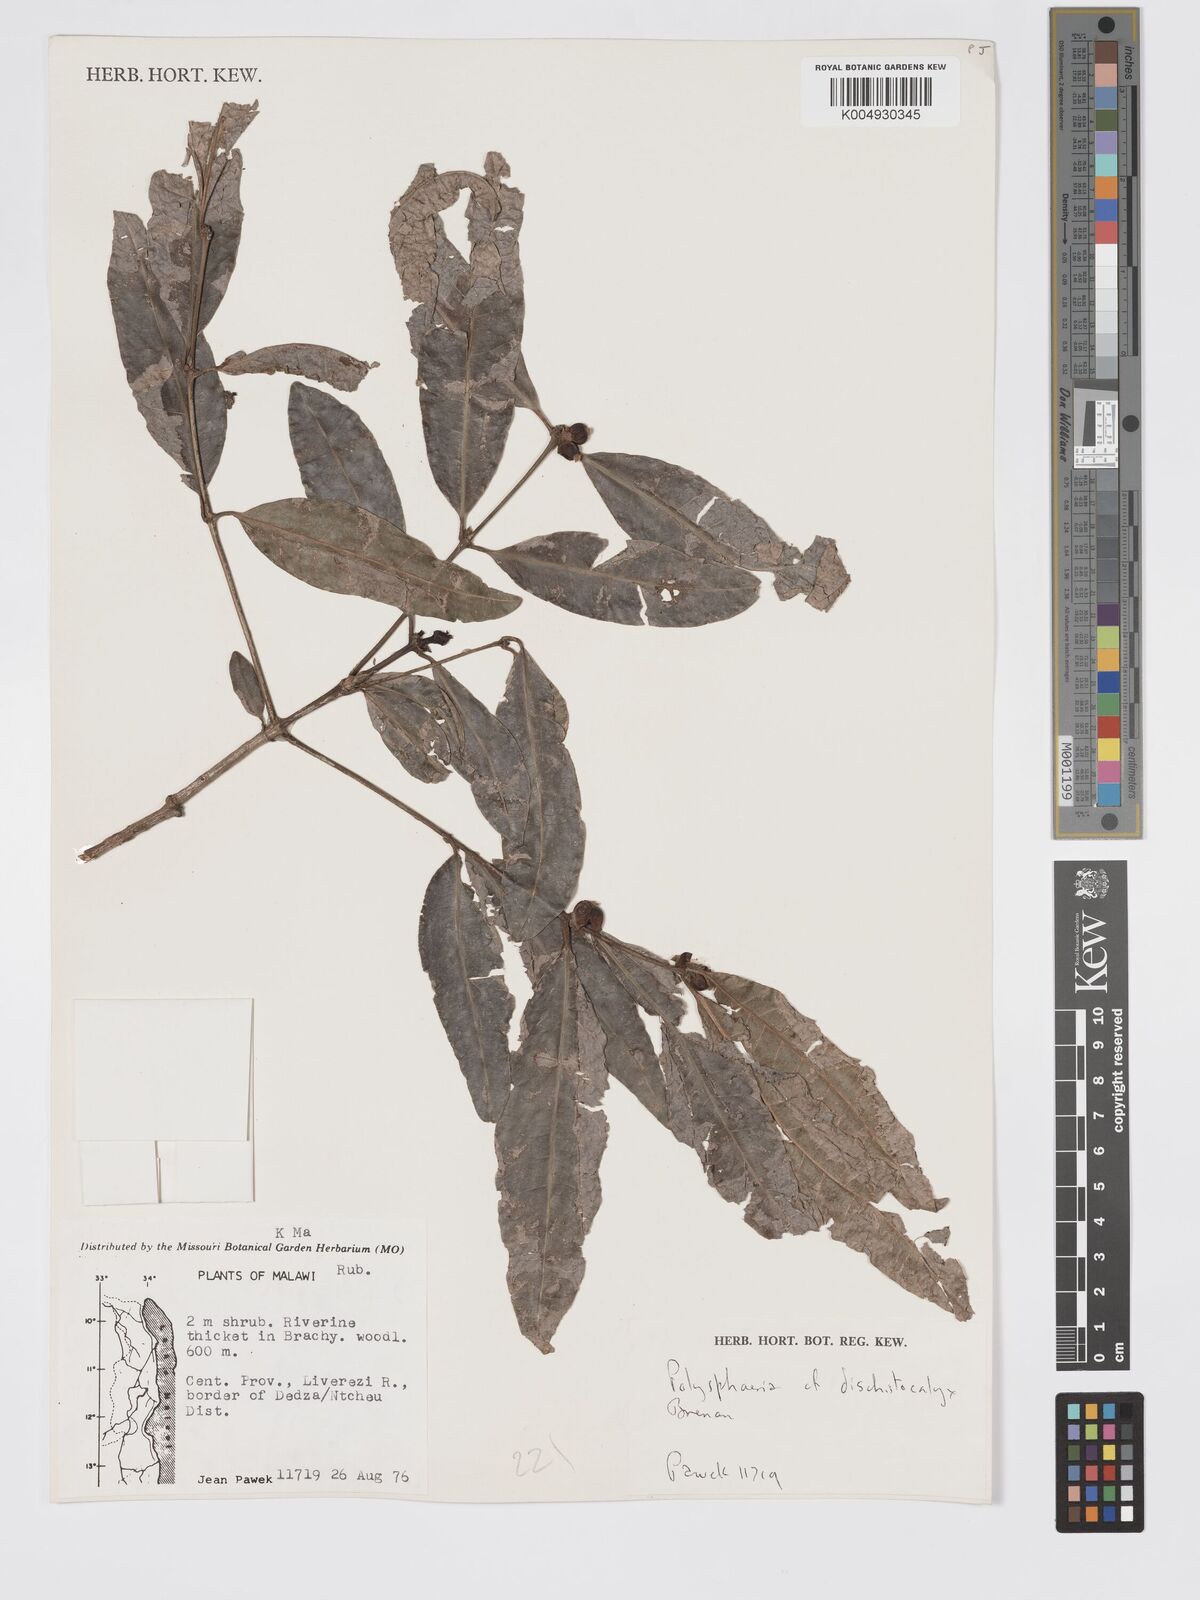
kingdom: Plantae
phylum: Tracheophyta
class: Magnoliopsida
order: Gentianales
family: Rubiaceae
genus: Polysphaeria
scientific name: Polysphaeria dischistocalyx
